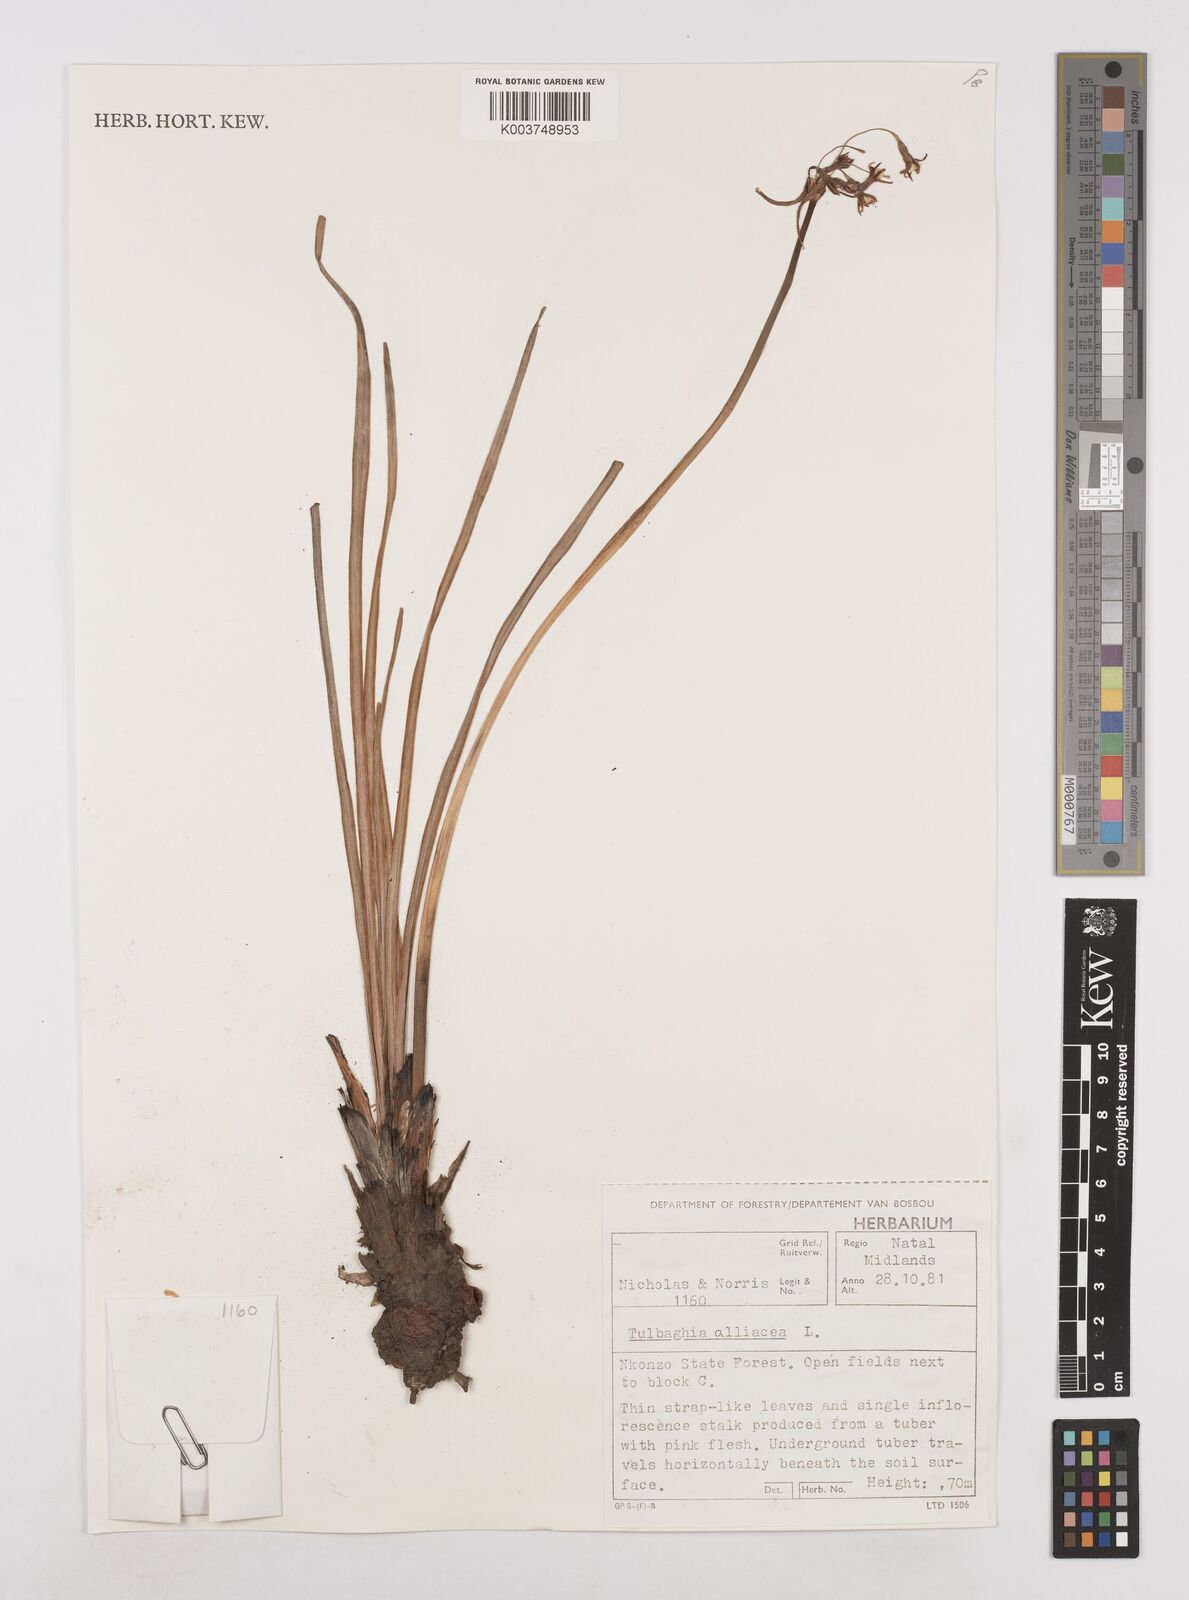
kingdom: Plantae
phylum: Tracheophyta
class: Liliopsida
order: Asparagales
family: Amaryllidaceae
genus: Tulbaghia
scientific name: Tulbaghia alliacea
